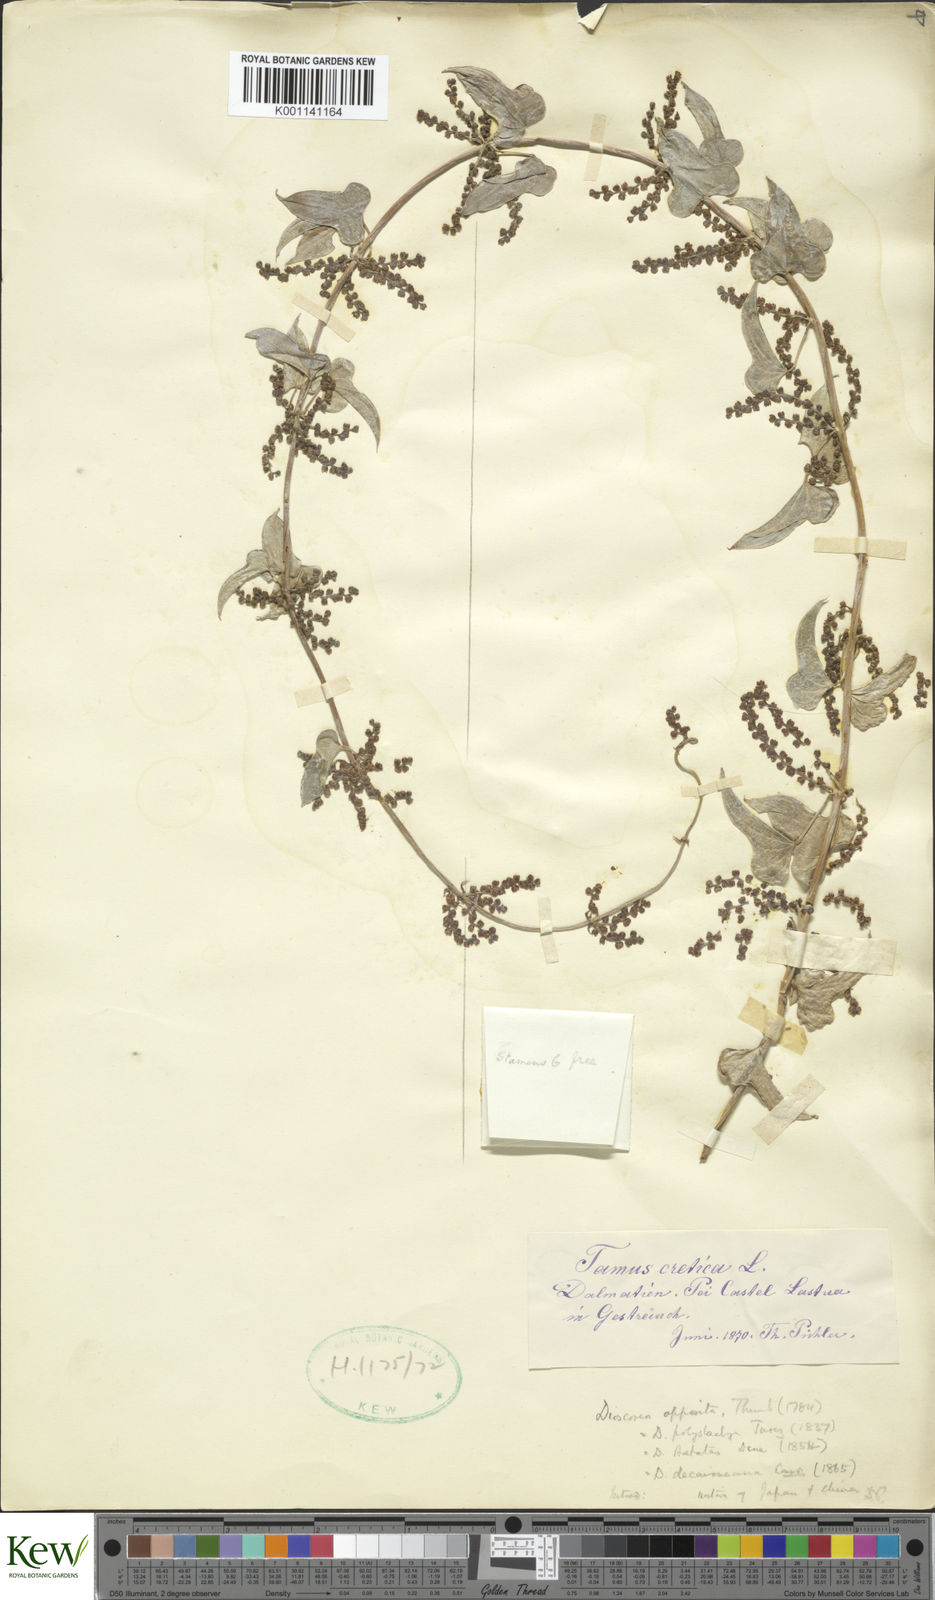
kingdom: Plantae
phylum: Tracheophyta
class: Liliopsida
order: Dioscoreales
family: Dioscoreaceae
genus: Dioscorea
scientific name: Dioscorea sinuata
